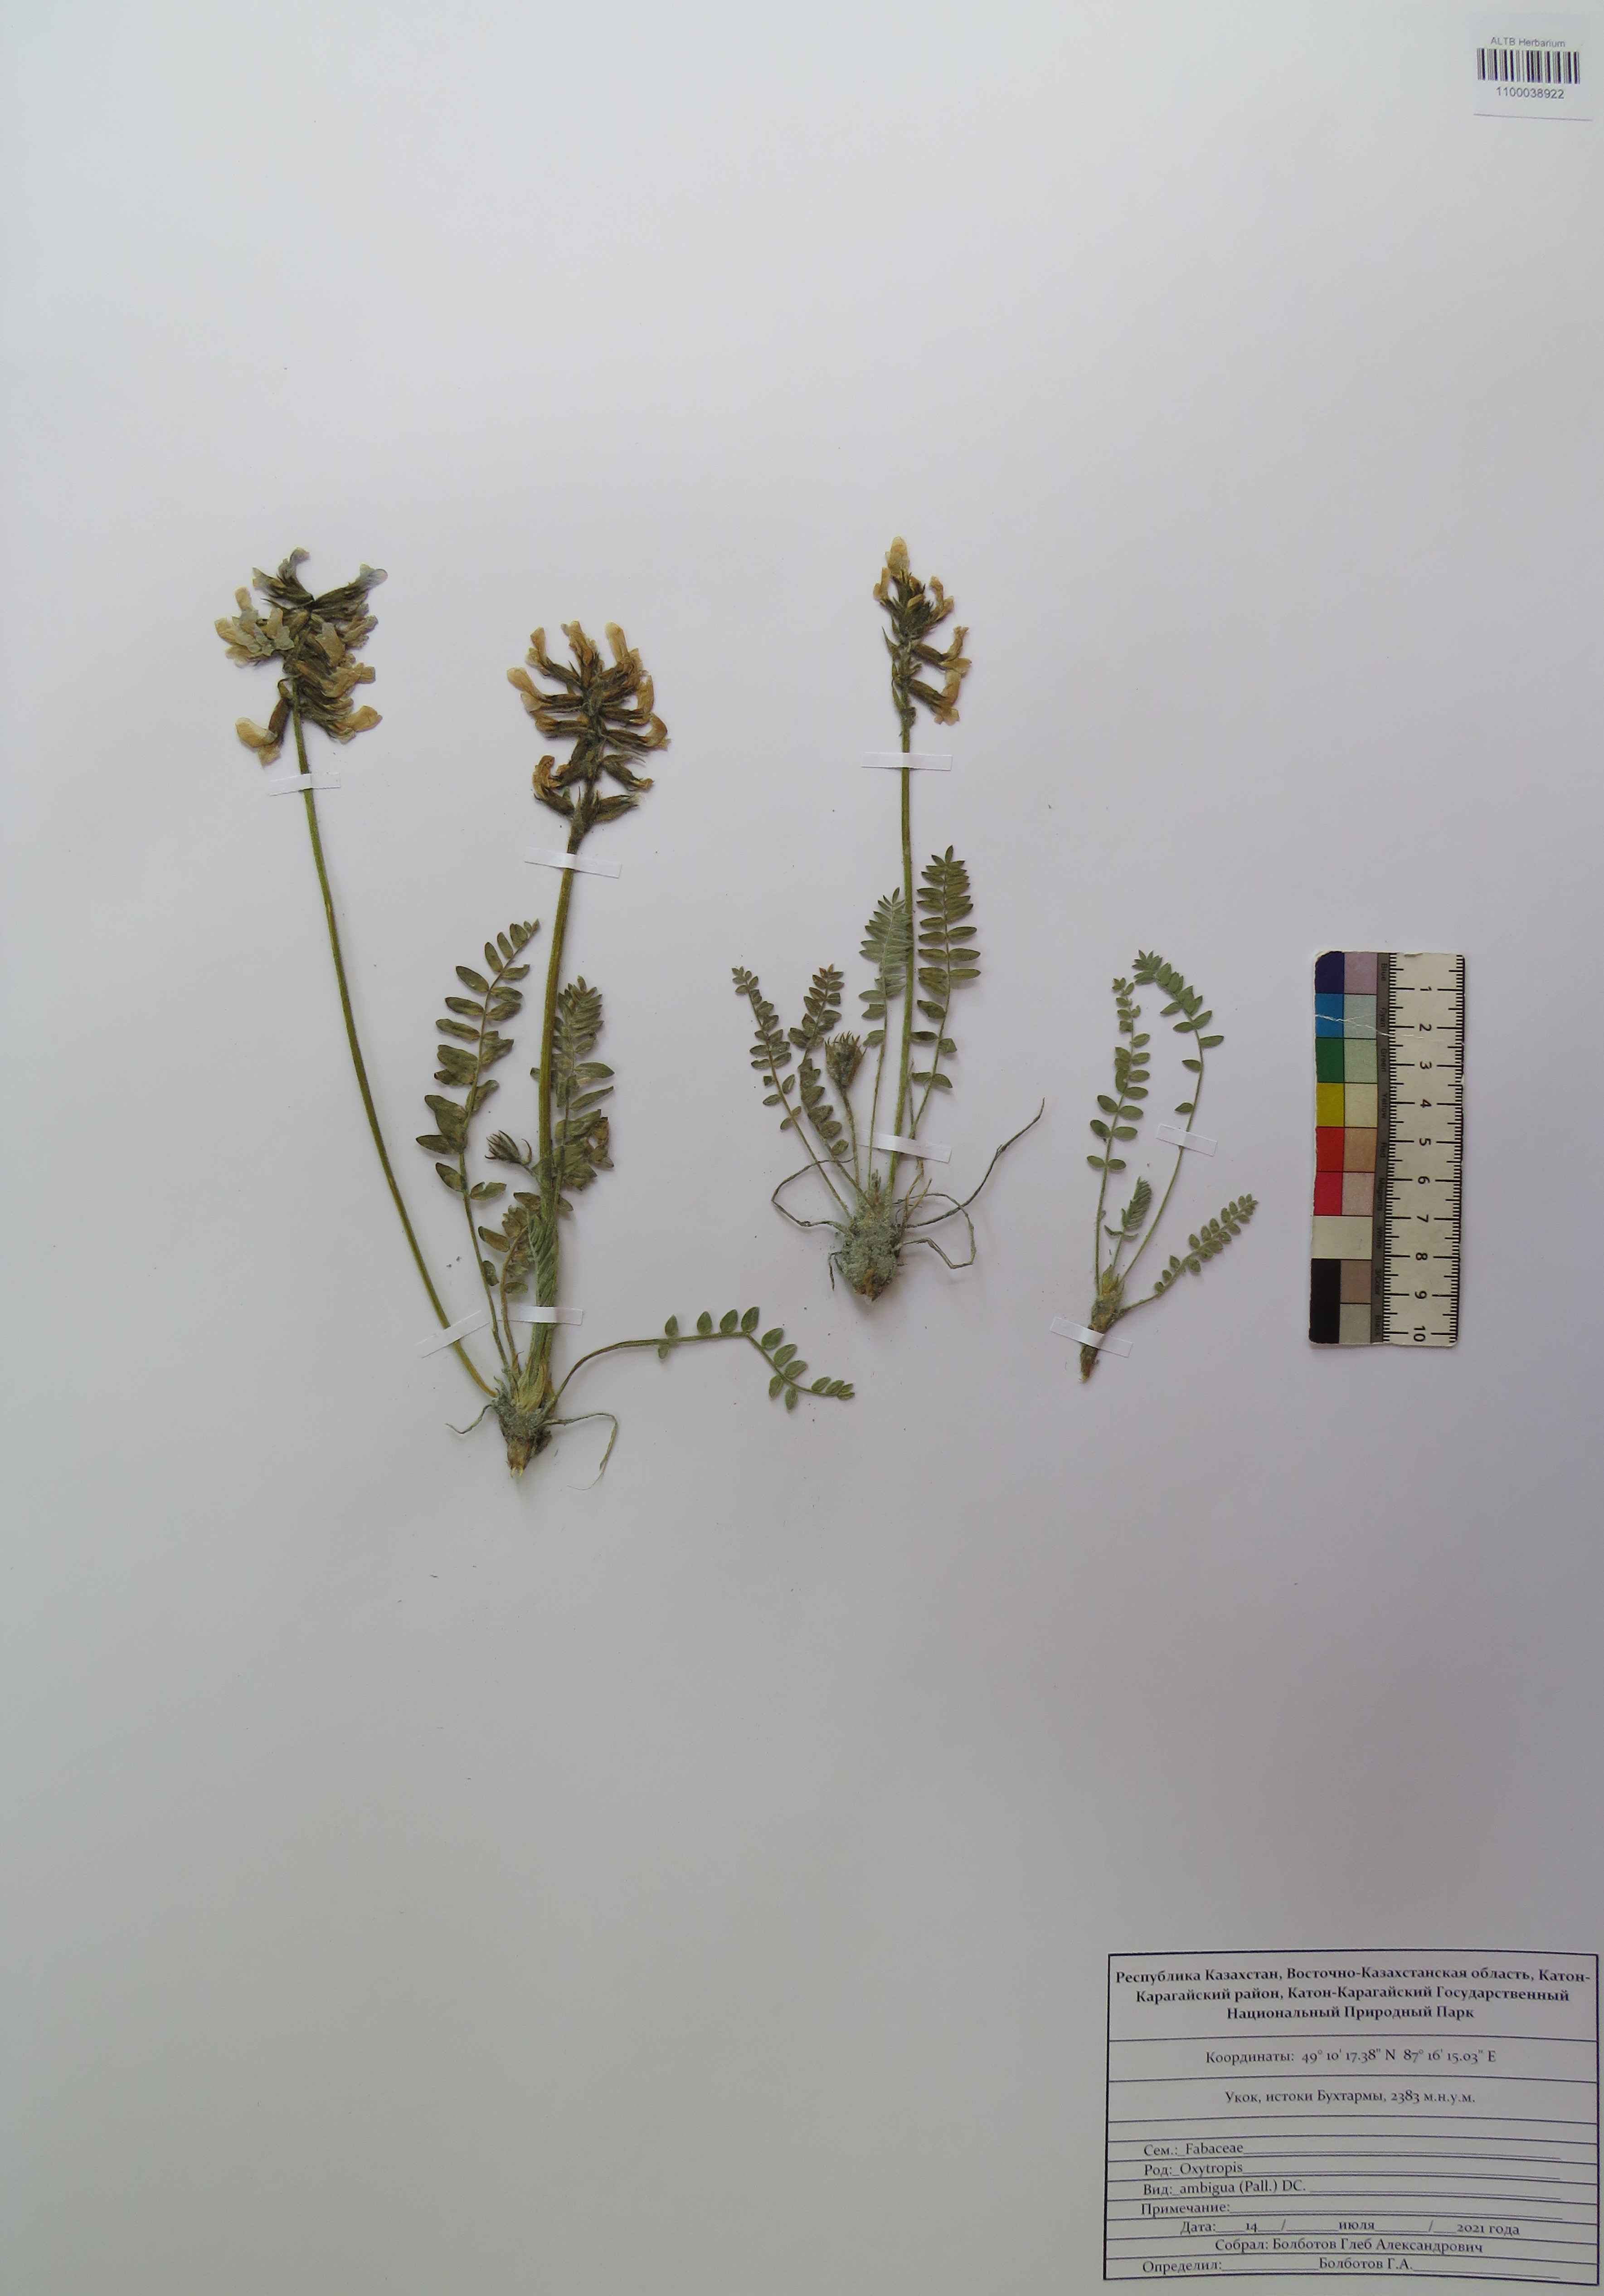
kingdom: Plantae
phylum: Tracheophyta
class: Magnoliopsida
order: Fabales
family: Fabaceae
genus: Oxytropis
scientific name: Oxytropis ambigua
